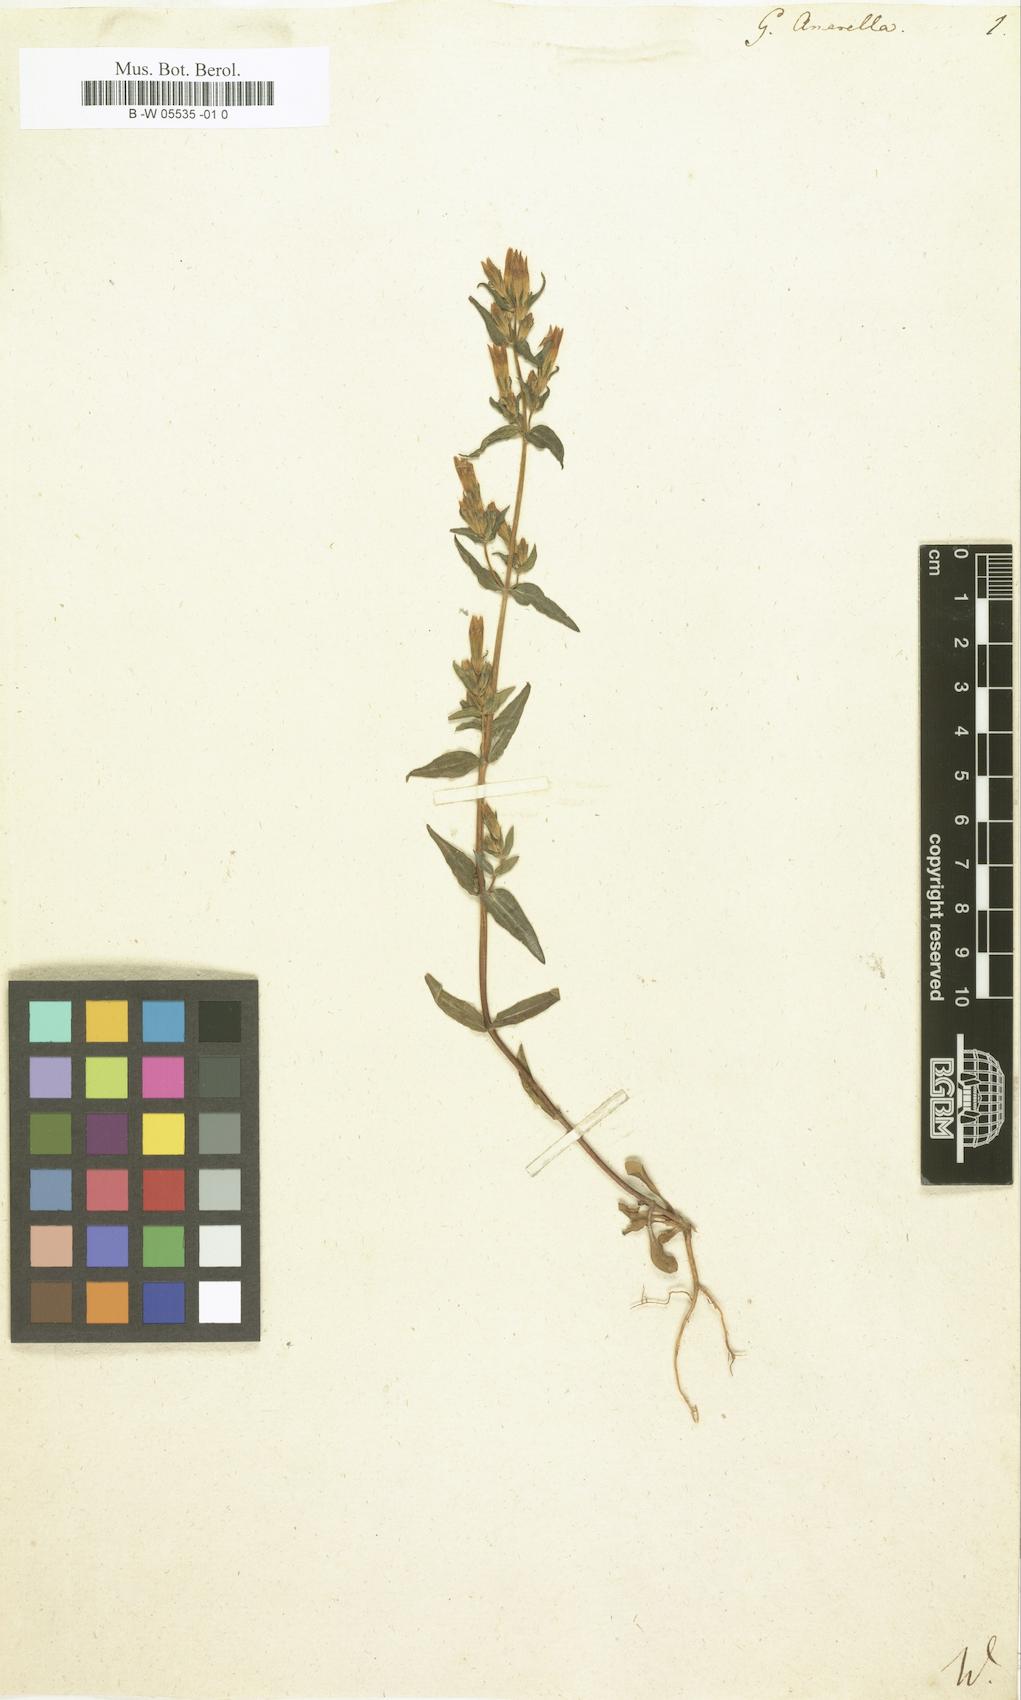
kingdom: Plantae
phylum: Tracheophyta
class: Magnoliopsida
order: Gentianales
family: Gentianaceae
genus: Gentianella
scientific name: Gentianella
